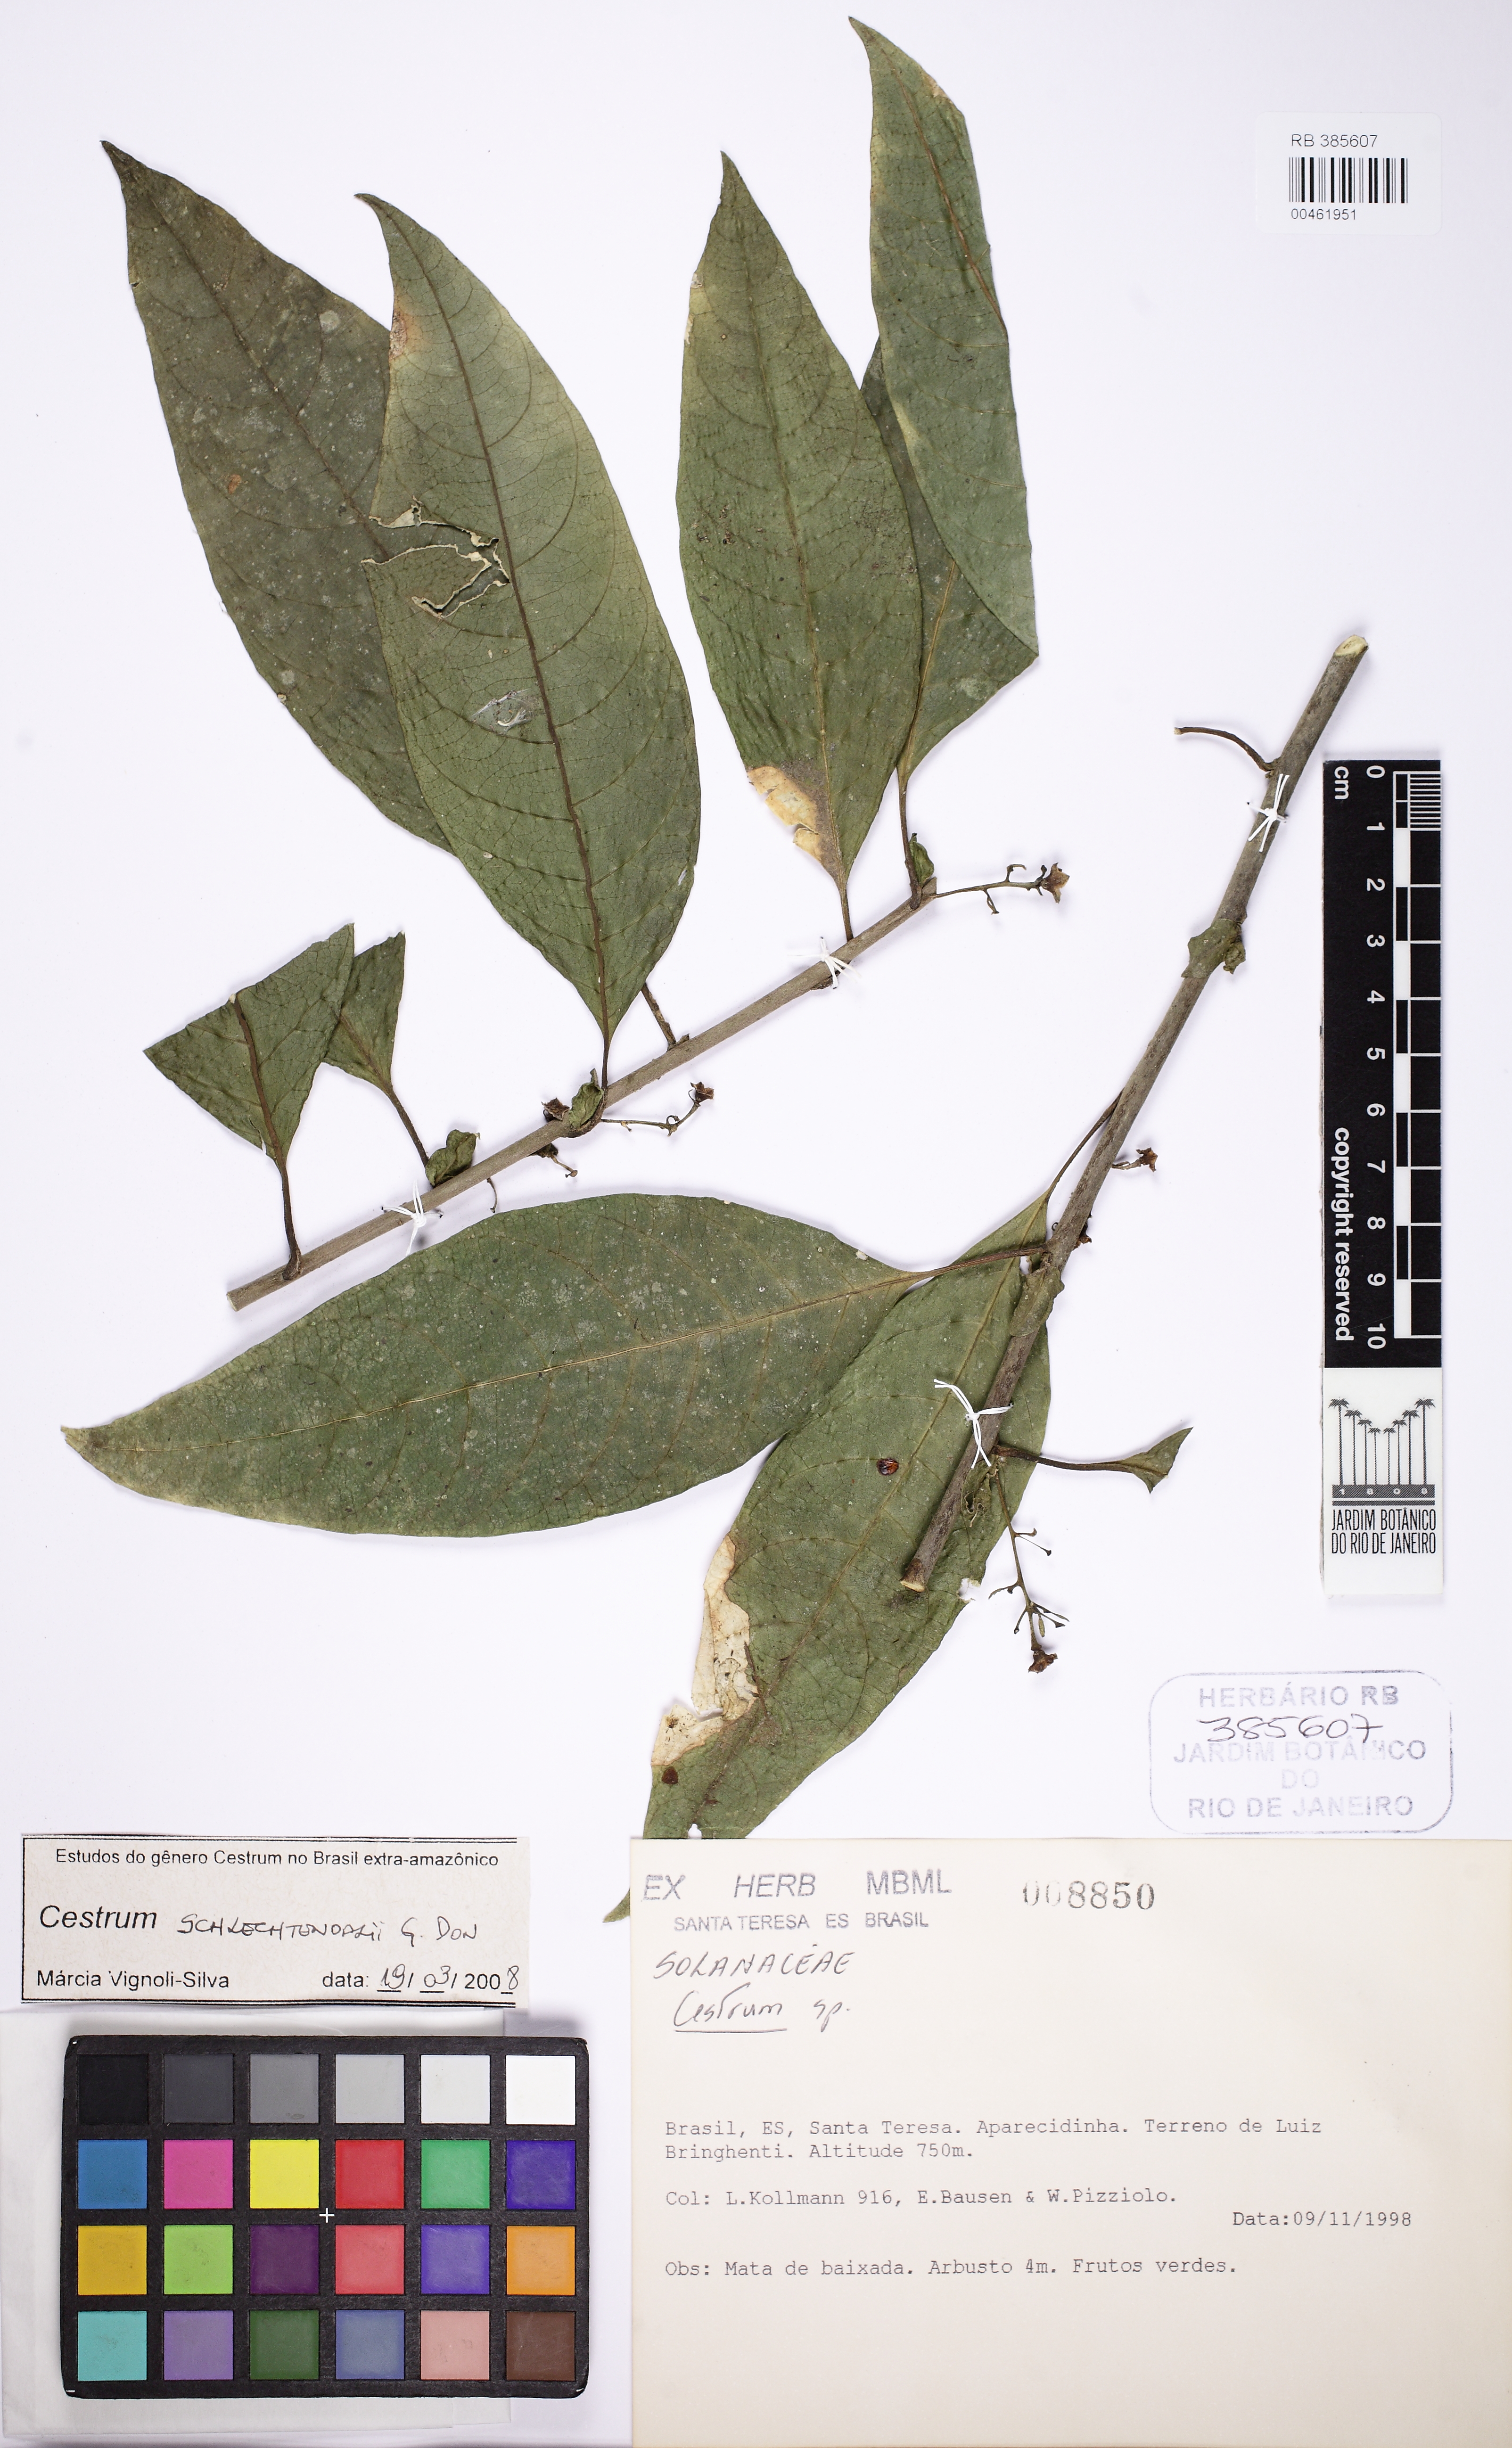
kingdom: Plantae
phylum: Tracheophyta
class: Magnoliopsida
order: Solanales
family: Solanaceae
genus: Cestrum
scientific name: Cestrum schlechtendalii
